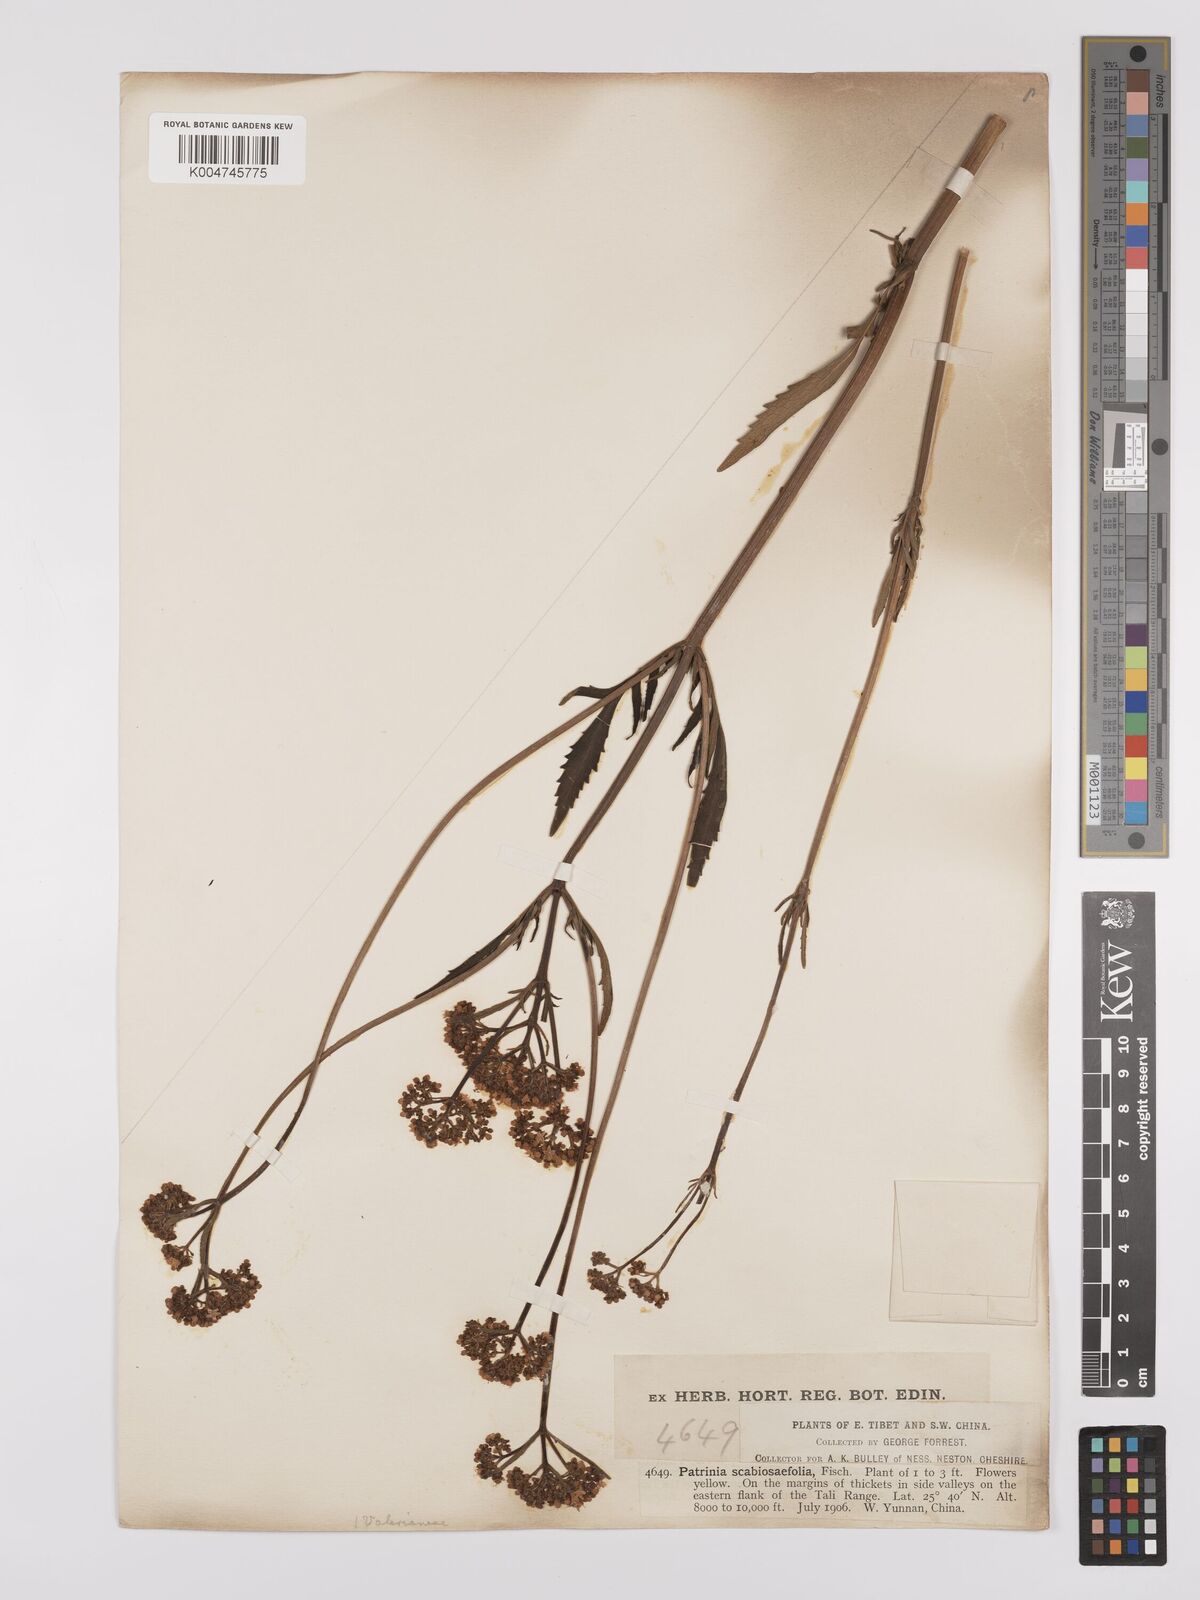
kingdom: Plantae
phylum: Tracheophyta
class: Magnoliopsida
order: Dipsacales
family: Caprifoliaceae
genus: Patrinia
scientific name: Patrinia
